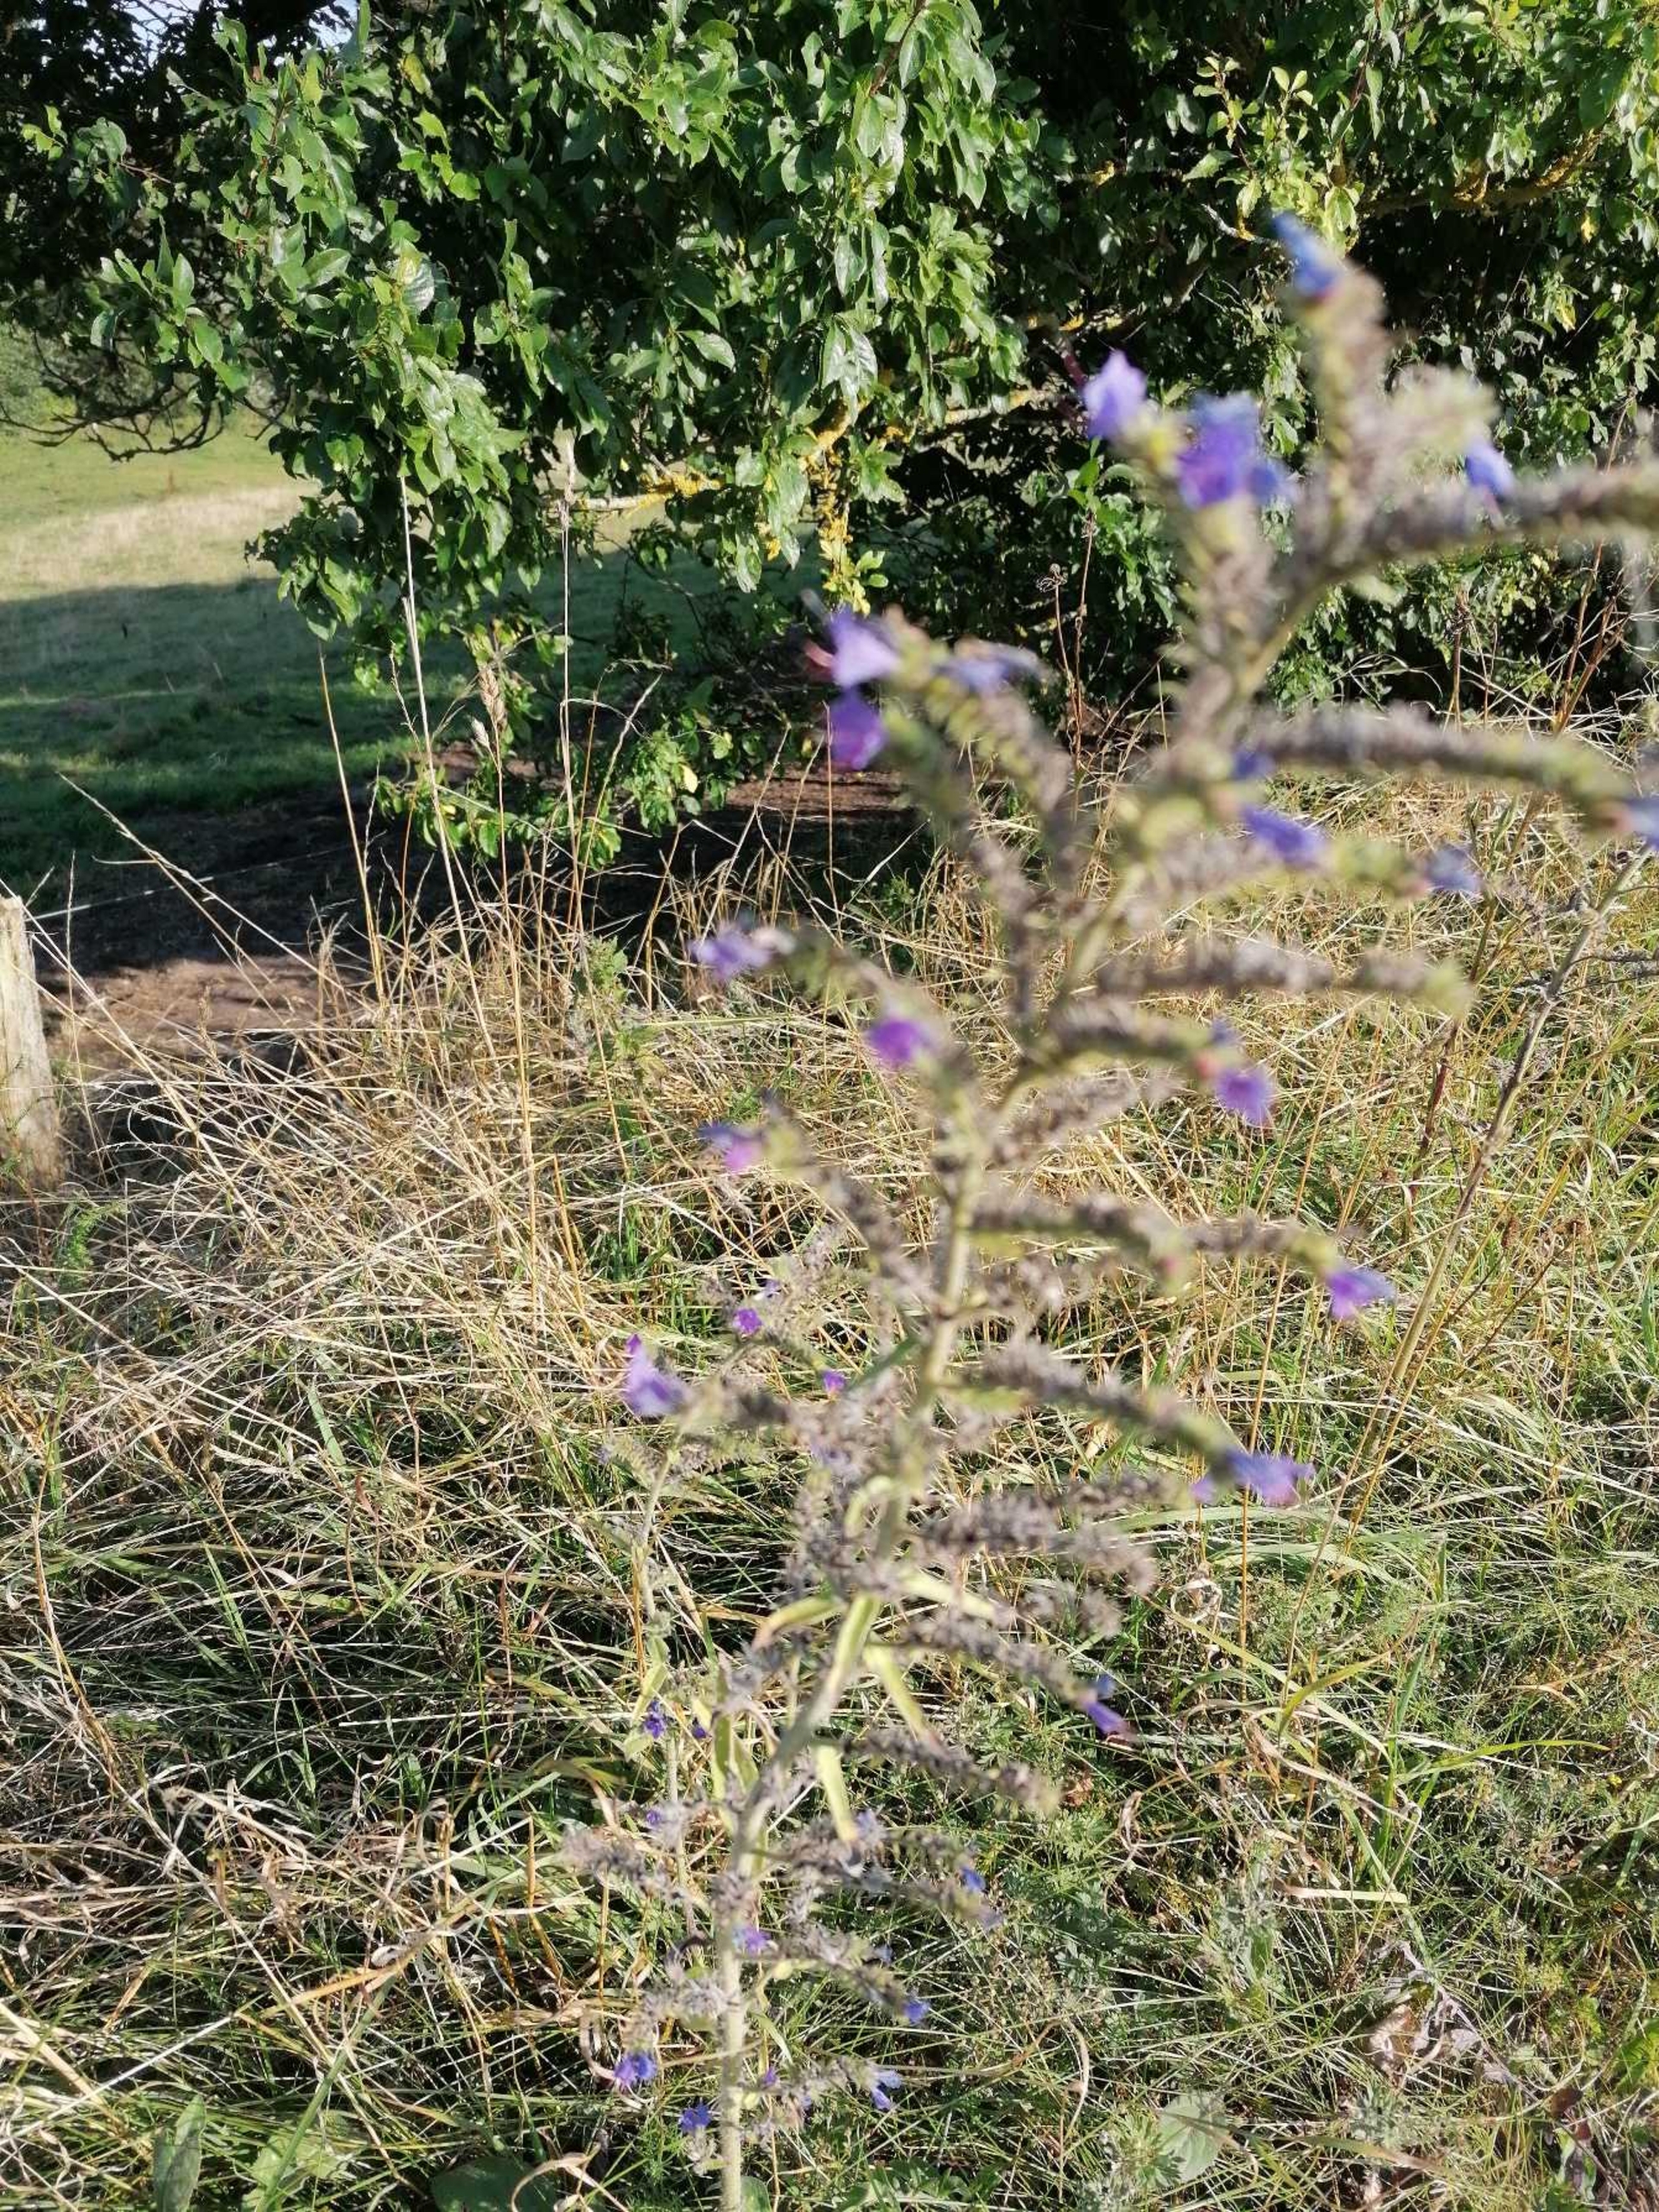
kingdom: Plantae
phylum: Tracheophyta
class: Magnoliopsida
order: Boraginales
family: Boraginaceae
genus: Echium
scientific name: Echium vulgare
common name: Slangehoved
